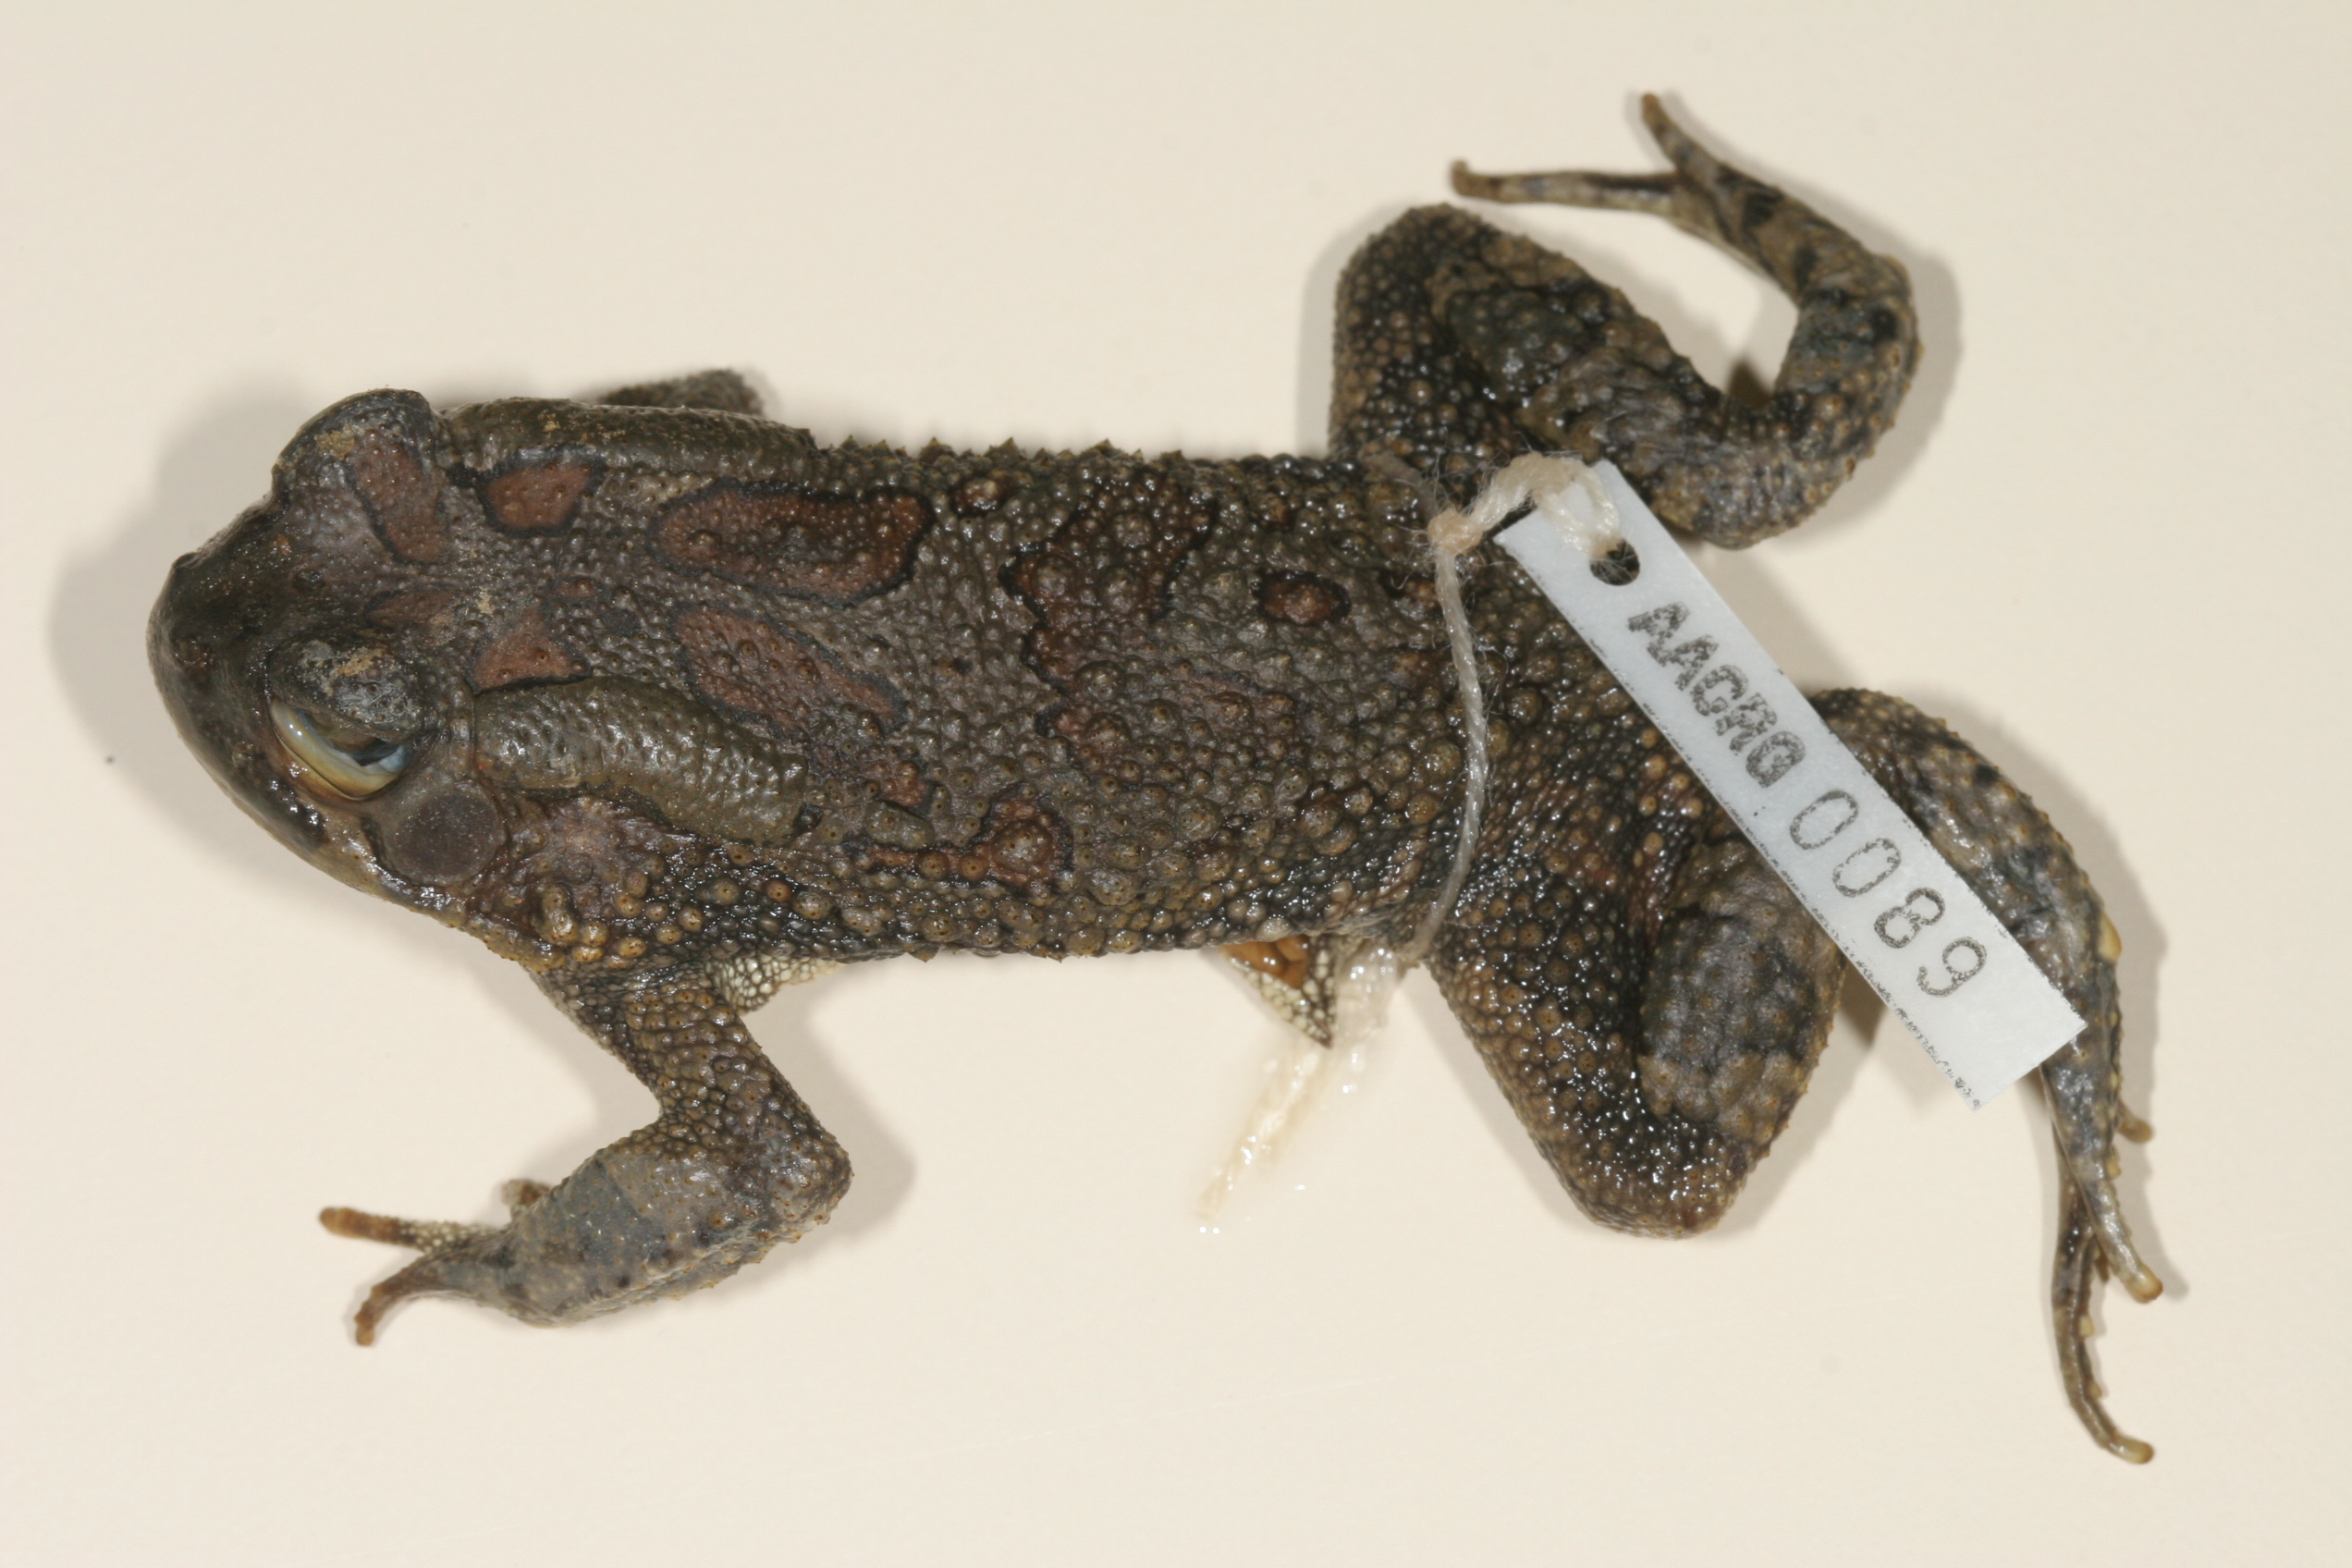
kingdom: Animalia
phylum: Chordata
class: Amphibia
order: Anura
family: Bufonidae
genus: Sclerophrys
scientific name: Sclerophrys garmani
